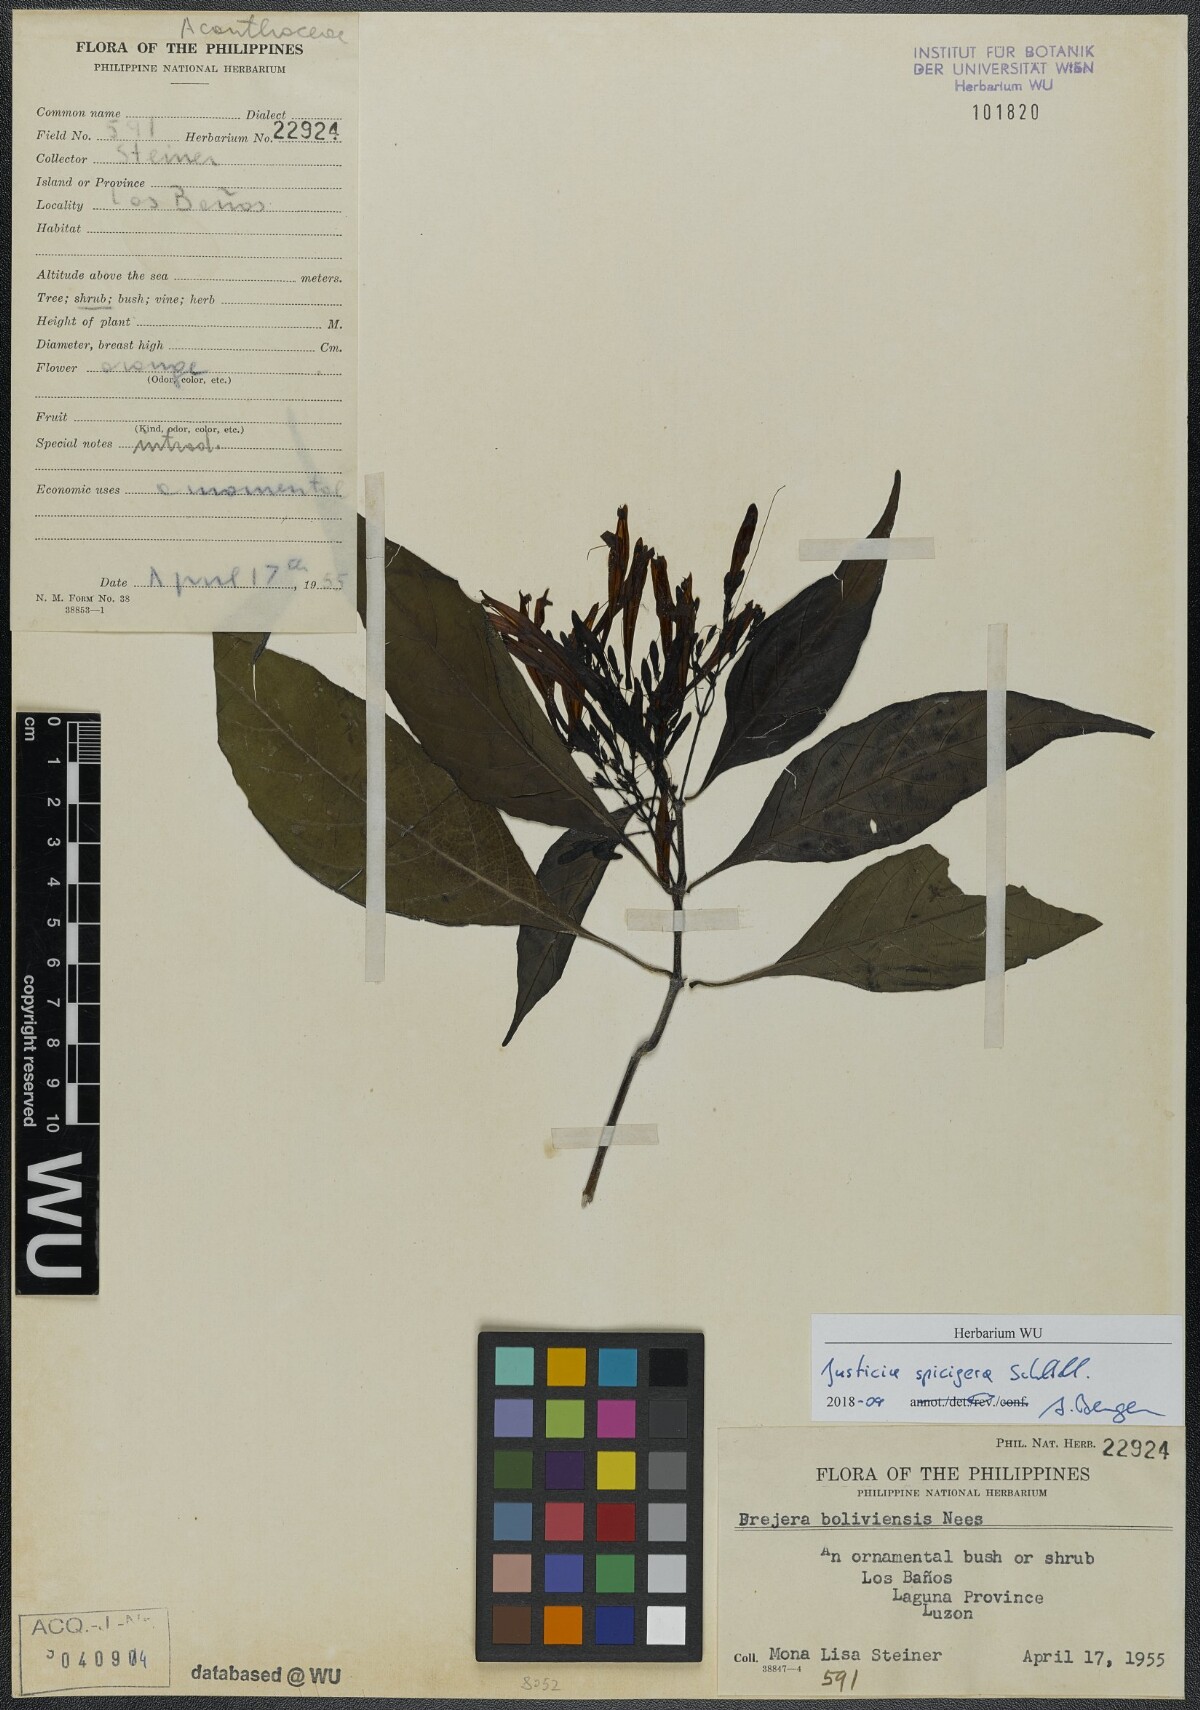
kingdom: Plantae
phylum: Tracheophyta
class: Magnoliopsida
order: Lamiales
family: Acanthaceae
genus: Justicia
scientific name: Justicia spicigera
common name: Mohintli
